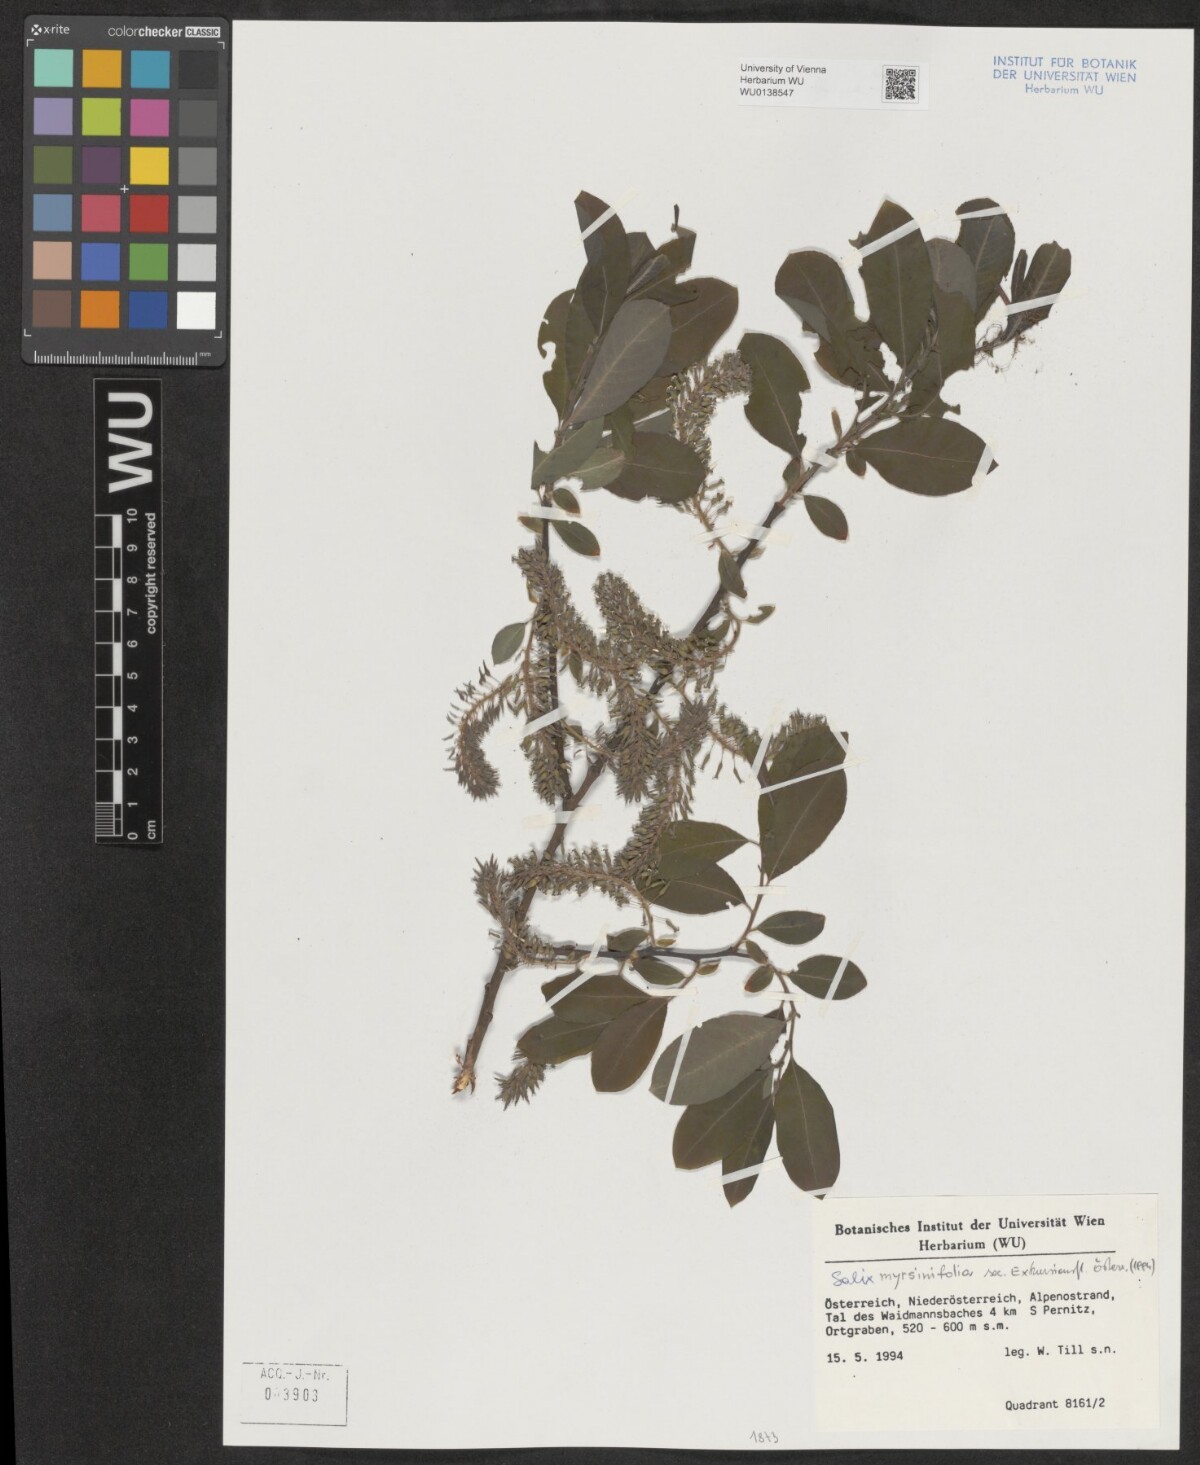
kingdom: Plantae
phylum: Tracheophyta
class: Magnoliopsida
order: Malpighiales
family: Salicaceae
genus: Salix
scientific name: Salix myrsinifolia
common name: Dark-leaved willow
